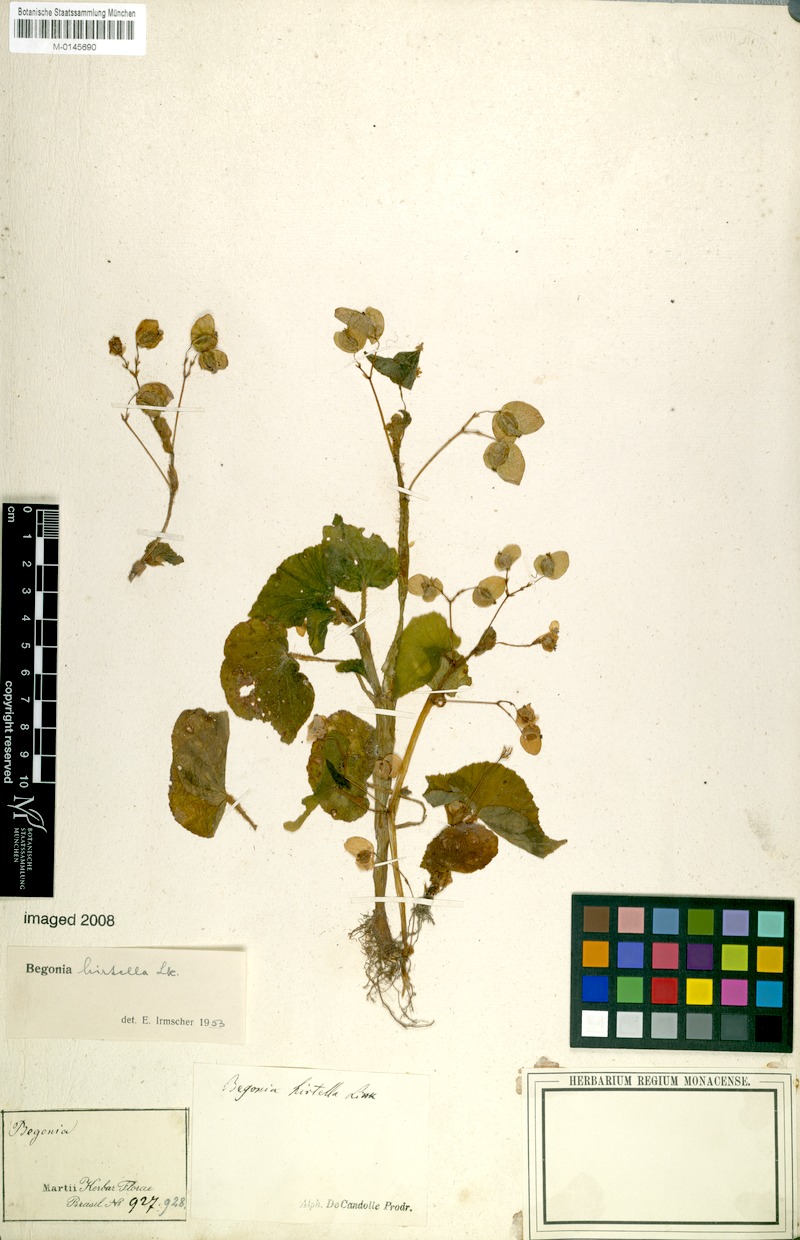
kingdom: Plantae
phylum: Tracheophyta
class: Magnoliopsida
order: Cucurbitales
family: Begoniaceae
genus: Begonia
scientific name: Begonia hirtella
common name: Brazilian begonia
